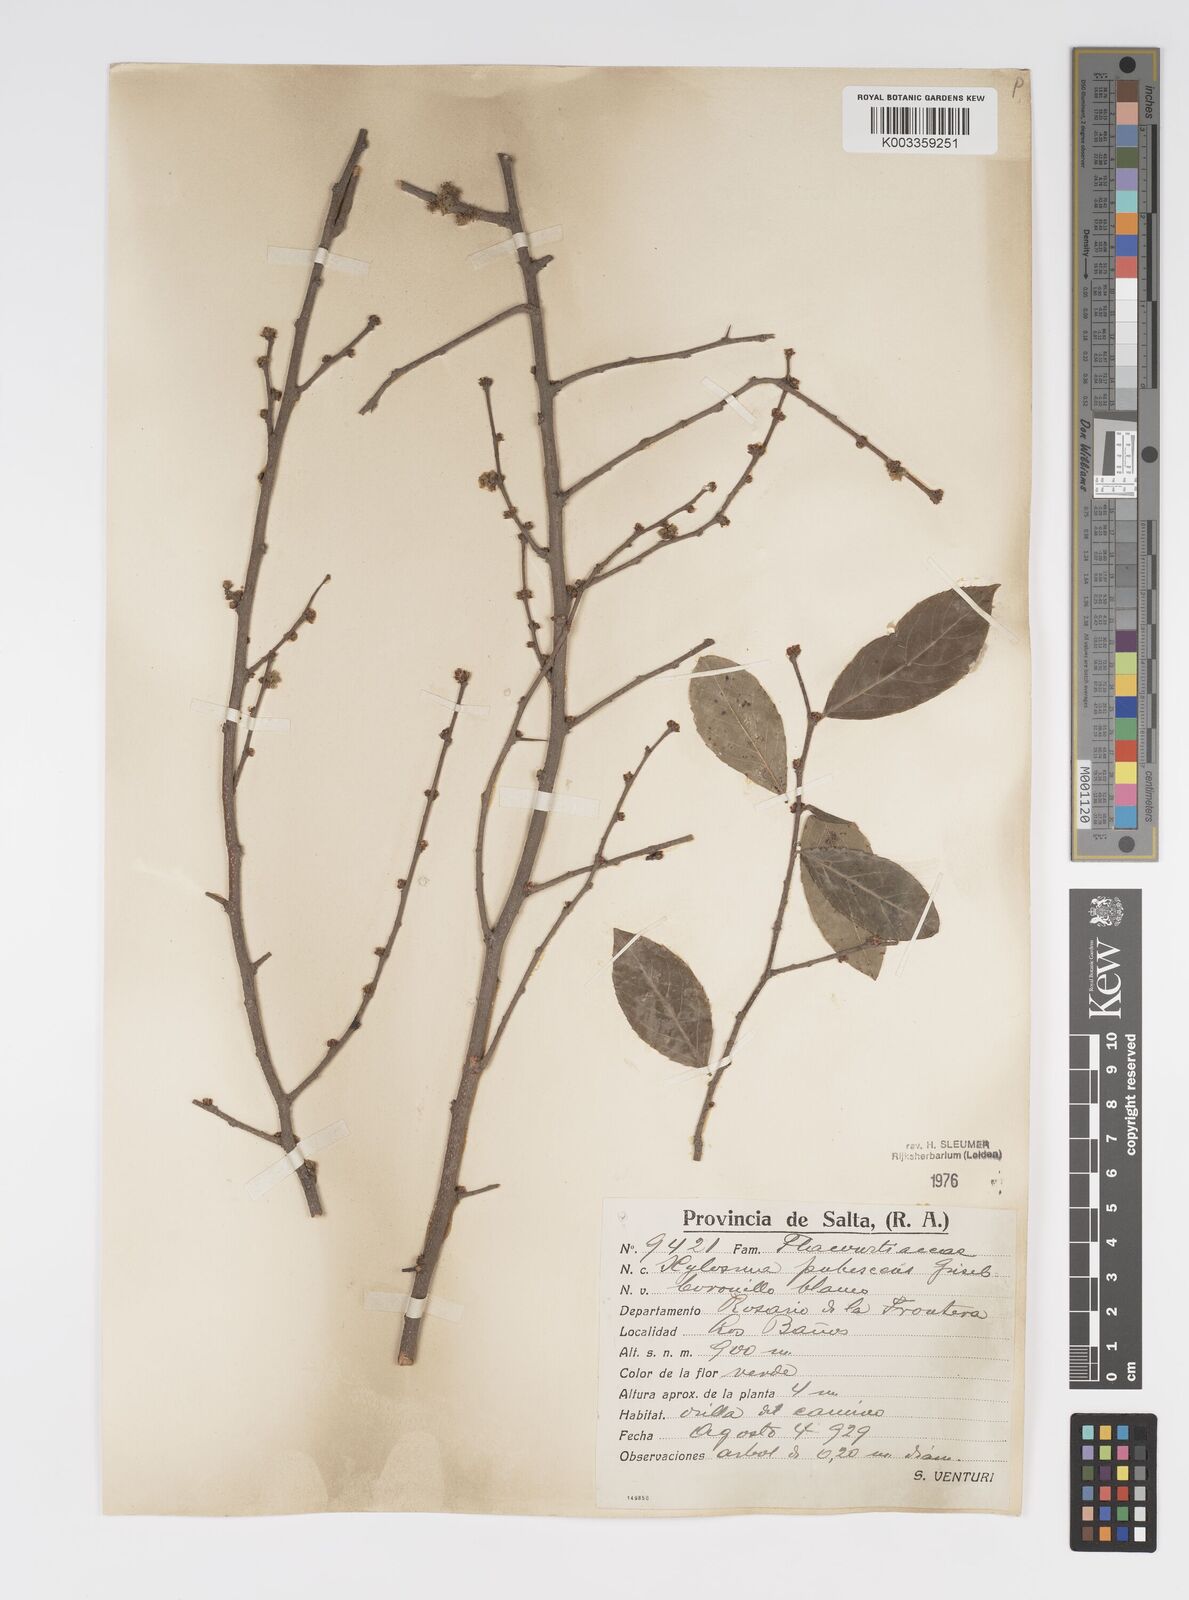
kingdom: Plantae
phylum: Tracheophyta
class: Magnoliopsida
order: Malpighiales
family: Salicaceae
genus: Xylosma
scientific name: Xylosma pubescens
